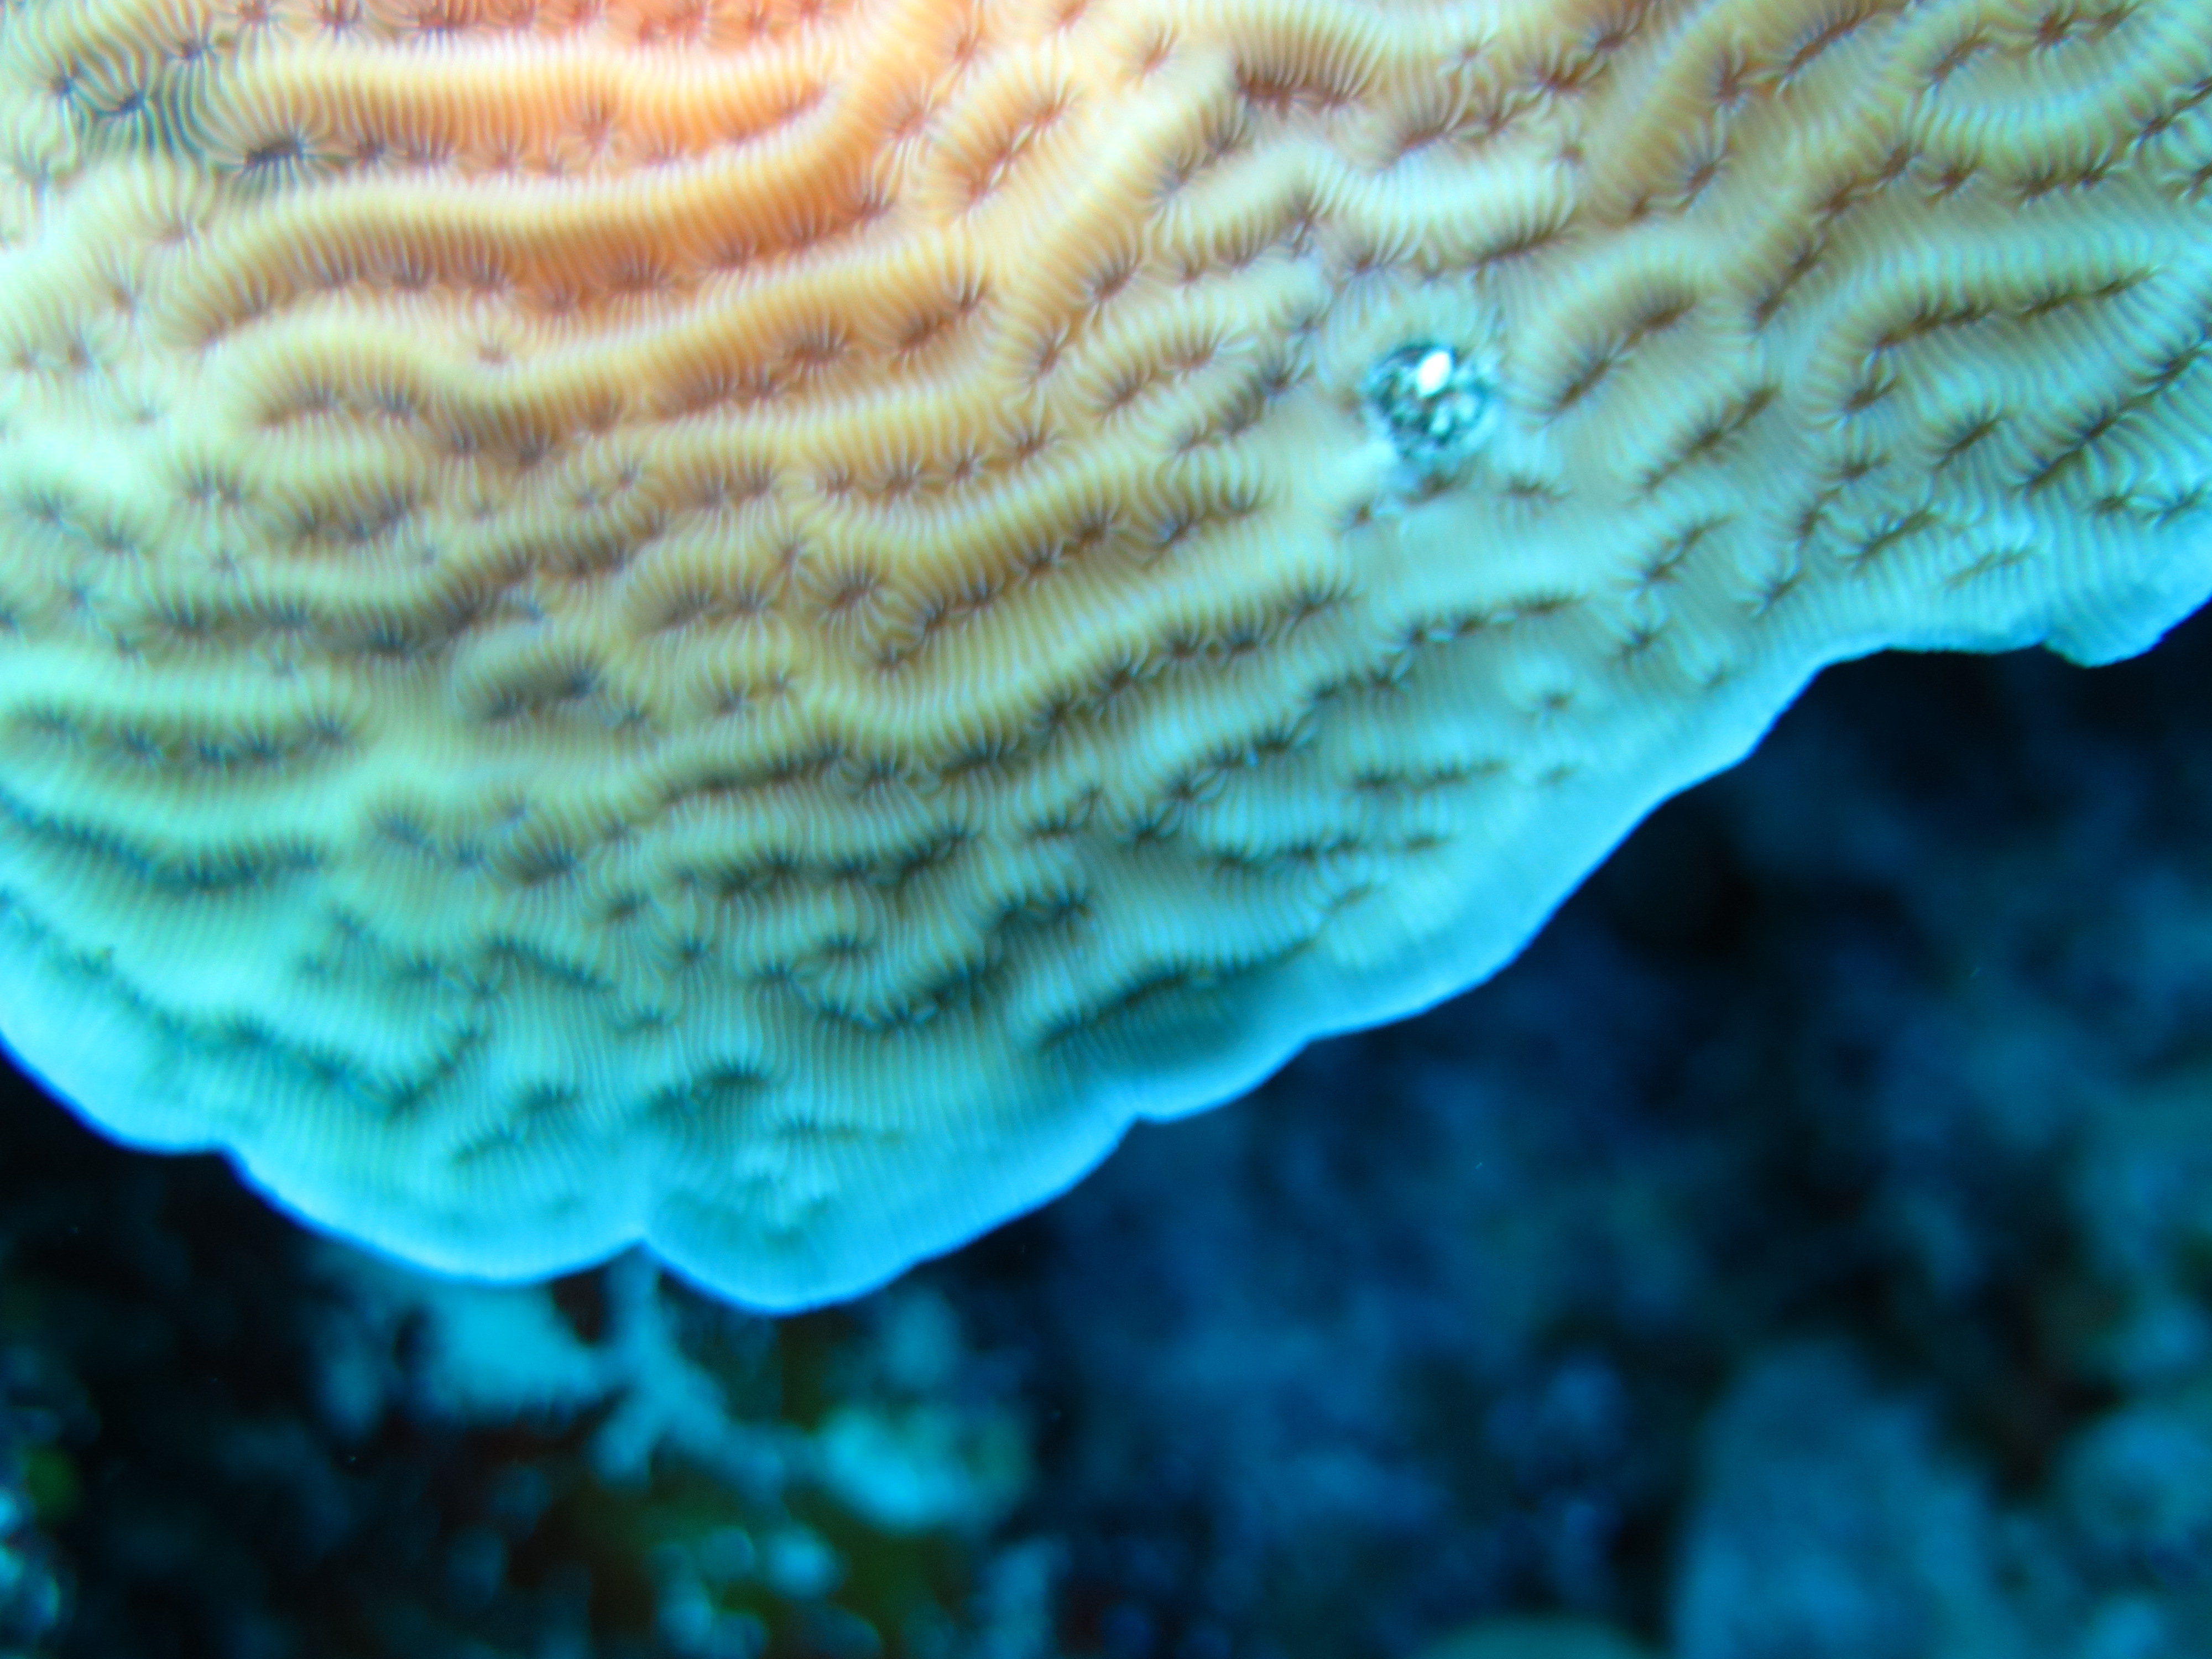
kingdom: Animalia
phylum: Cnidaria
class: Anthozoa
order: Scleractinia
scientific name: Scleractinia
